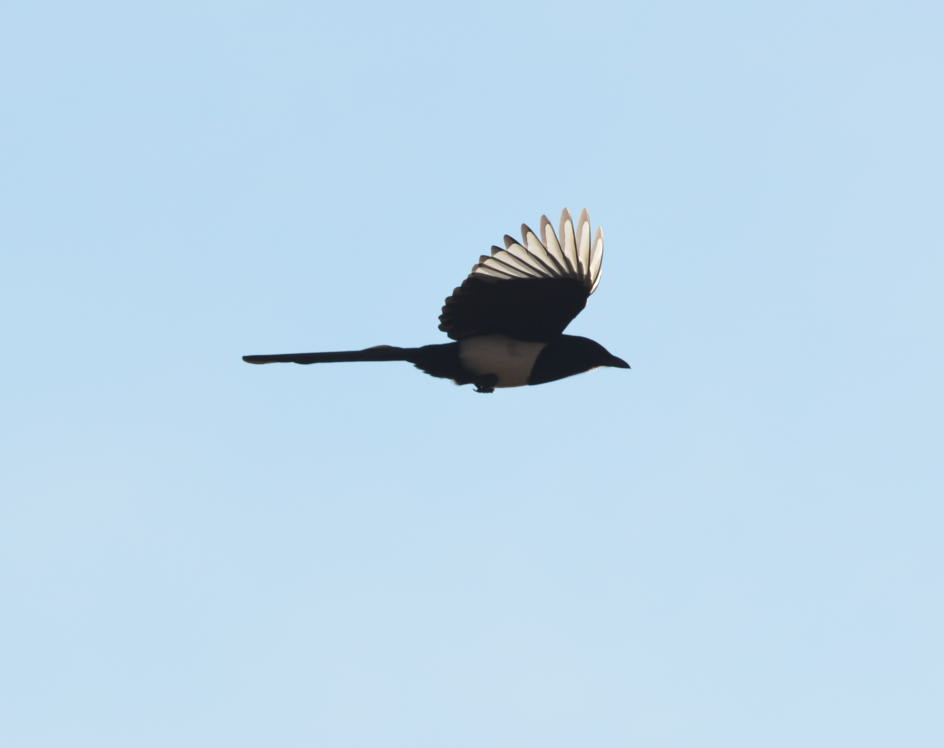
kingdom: Animalia
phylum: Chordata
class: Aves
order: Passeriformes
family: Corvidae
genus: Pica
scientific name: Pica pica
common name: Eurasian magpie
